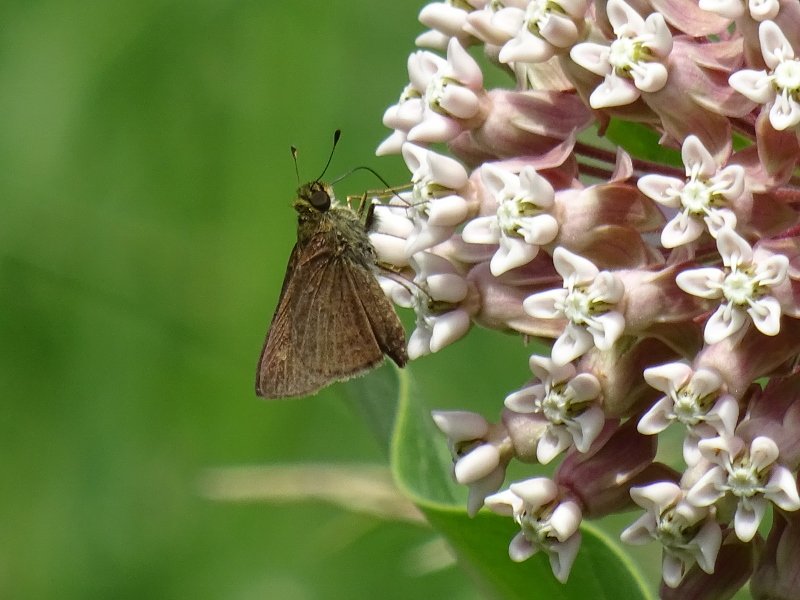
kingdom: Animalia
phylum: Arthropoda
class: Insecta
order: Lepidoptera
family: Hesperiidae
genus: Euphyes
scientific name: Euphyes vestris
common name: Dun Skipper
